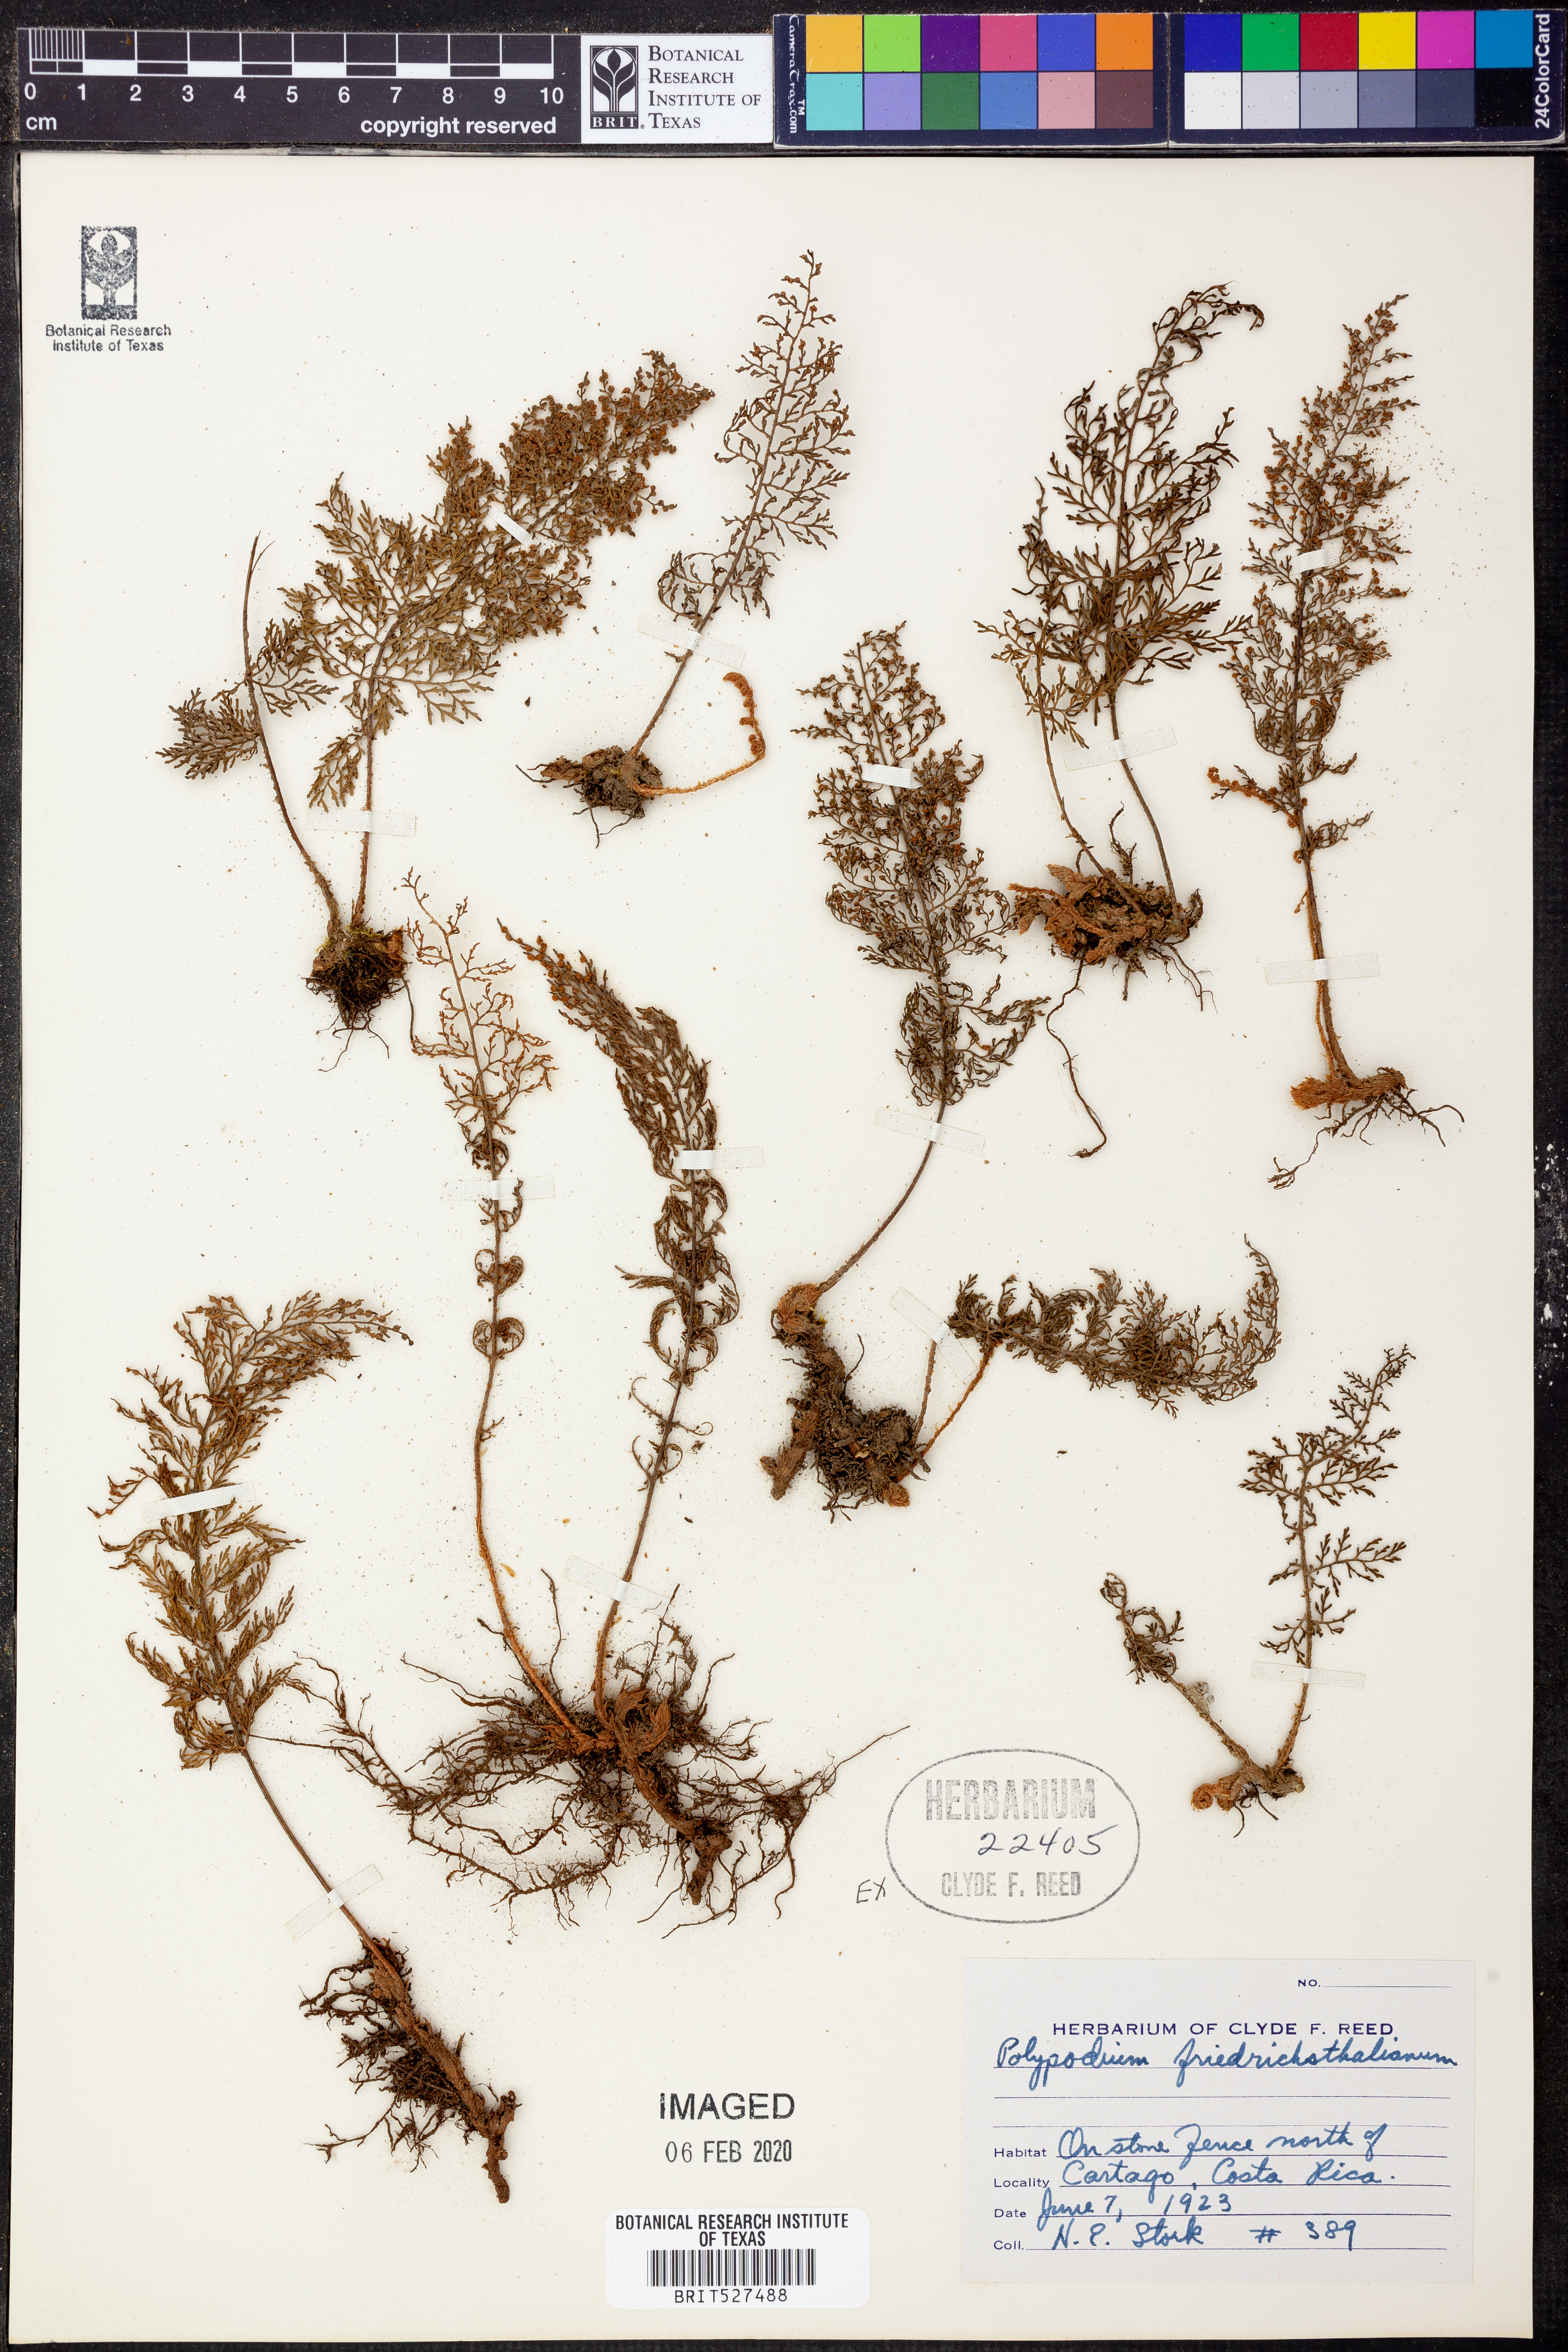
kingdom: Plantae
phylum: Tracheophyta
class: Polypodiopsida
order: Polypodiales
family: Polypodiaceae
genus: Pleopeltis
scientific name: Pleopeltis friedrichsthaliana
